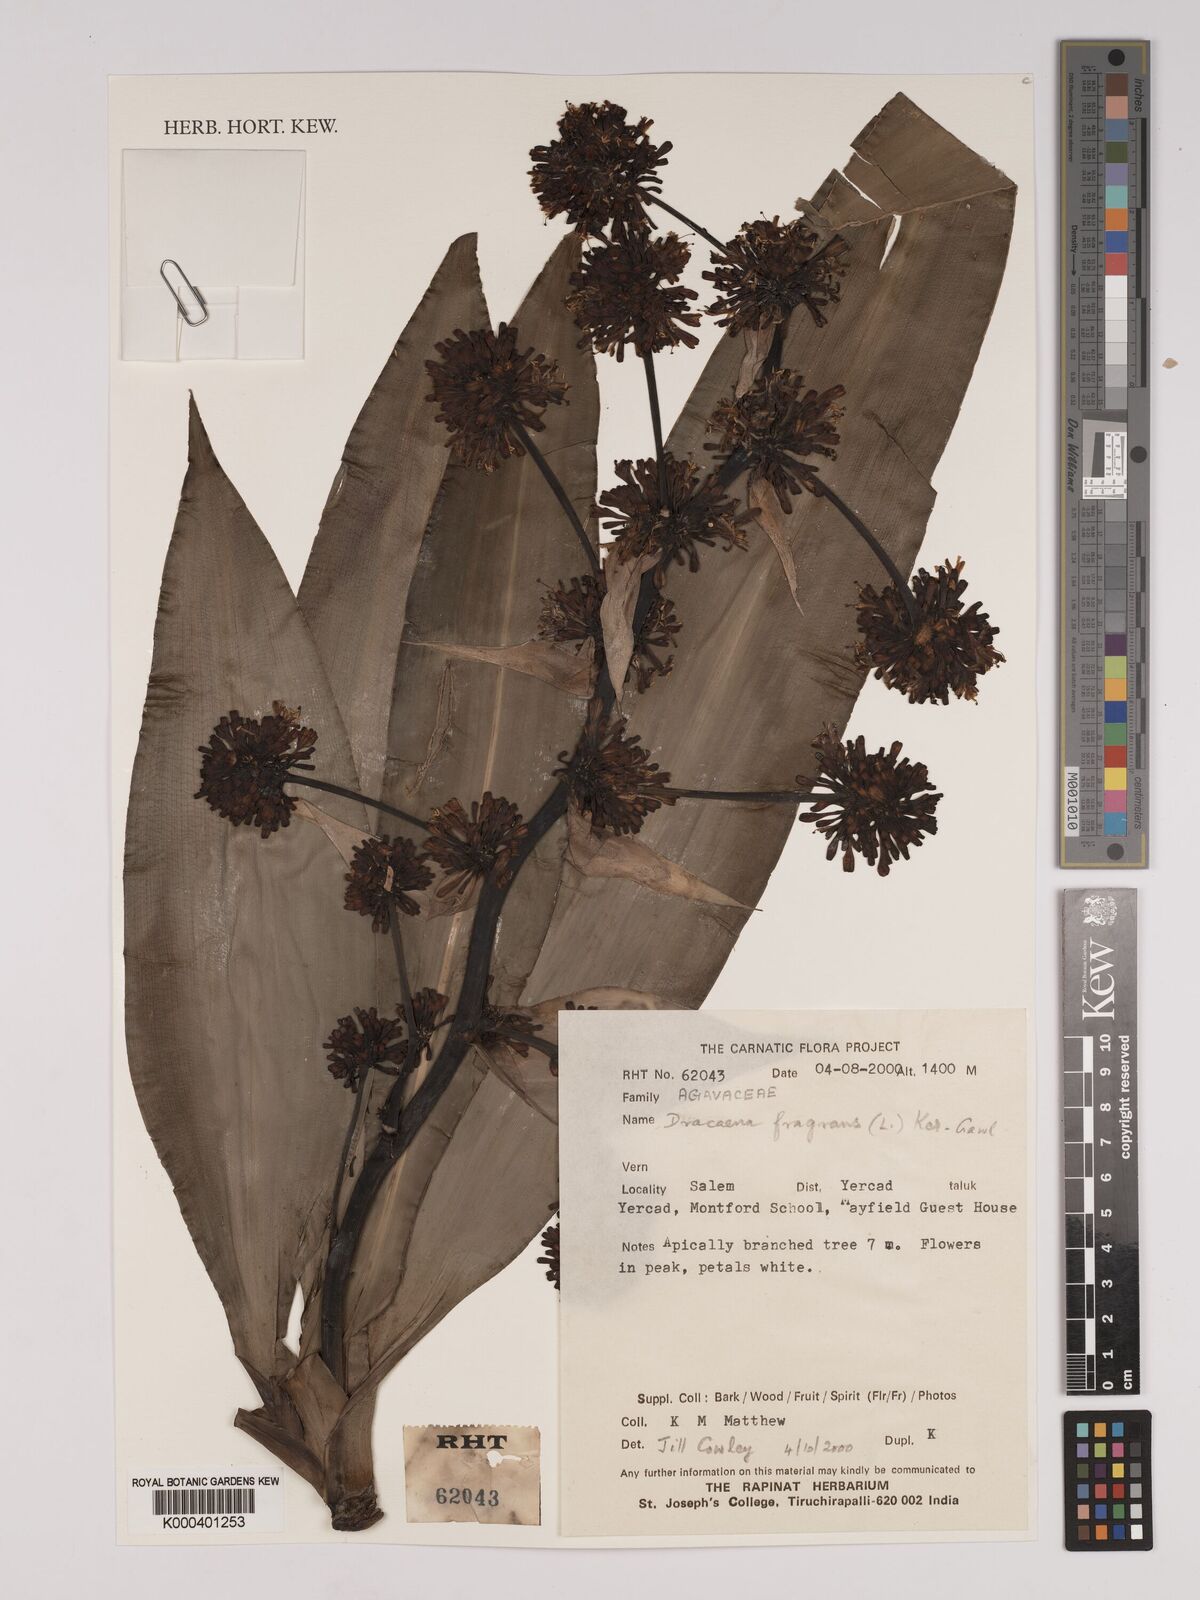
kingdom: Plantae
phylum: Tracheophyta
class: Liliopsida
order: Asparagales
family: Asparagaceae
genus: Dracaena
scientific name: Dracaena fragrans
